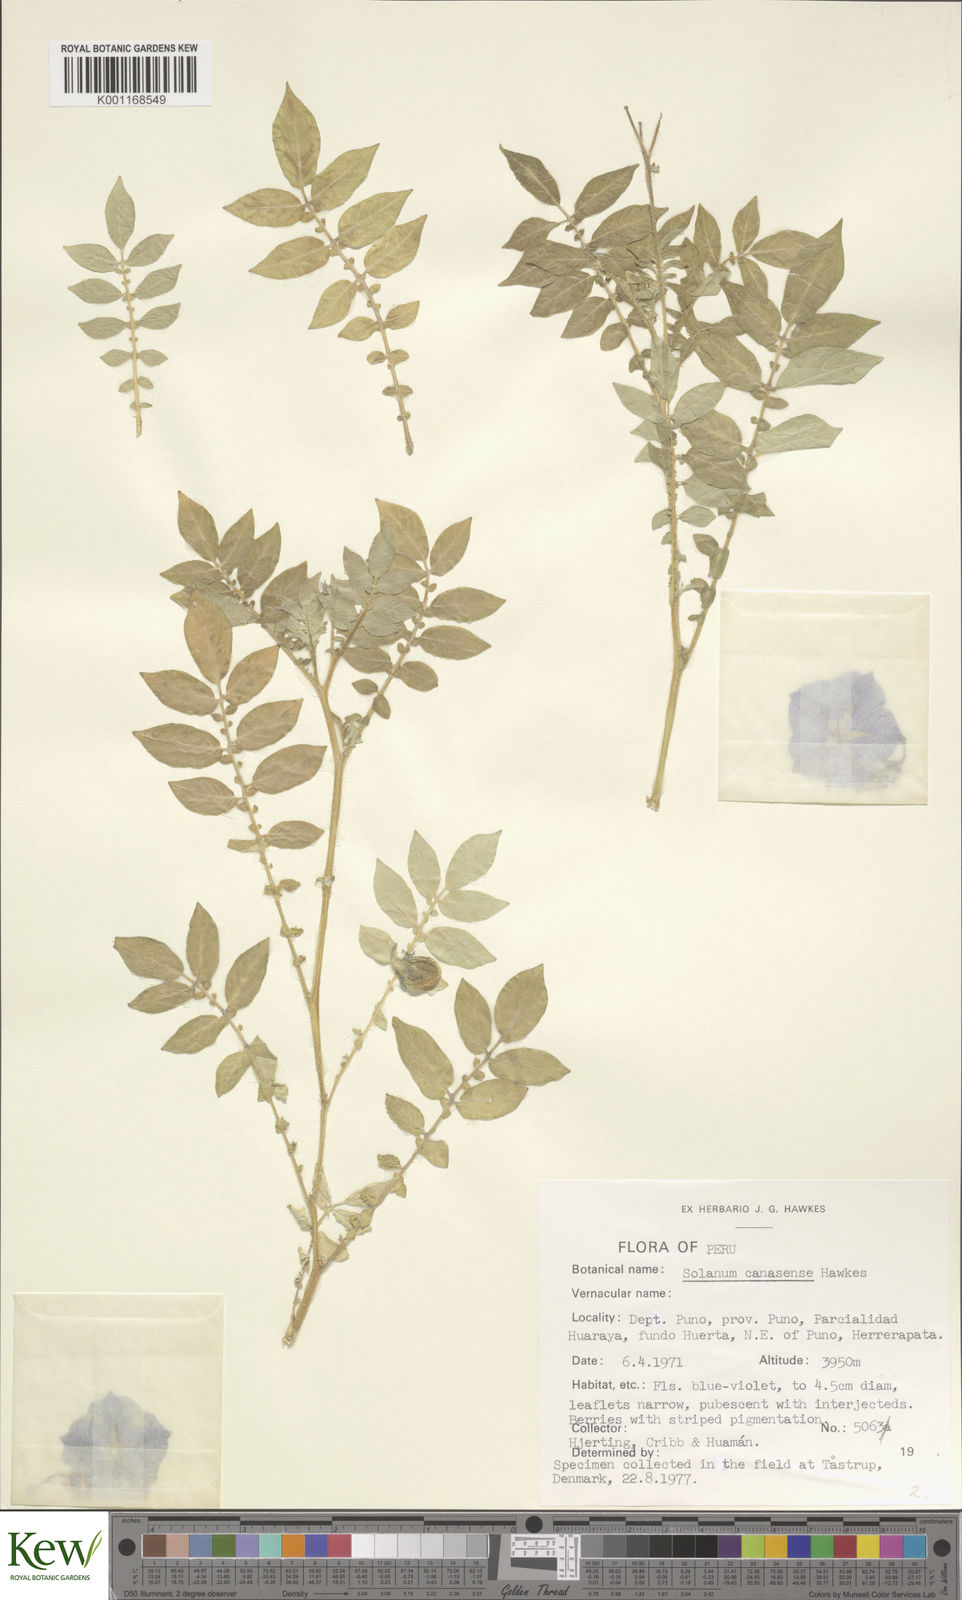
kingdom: Plantae
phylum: Tracheophyta
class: Magnoliopsida
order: Solanales
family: Solanaceae
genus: Solanum
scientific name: Solanum candolleanum
